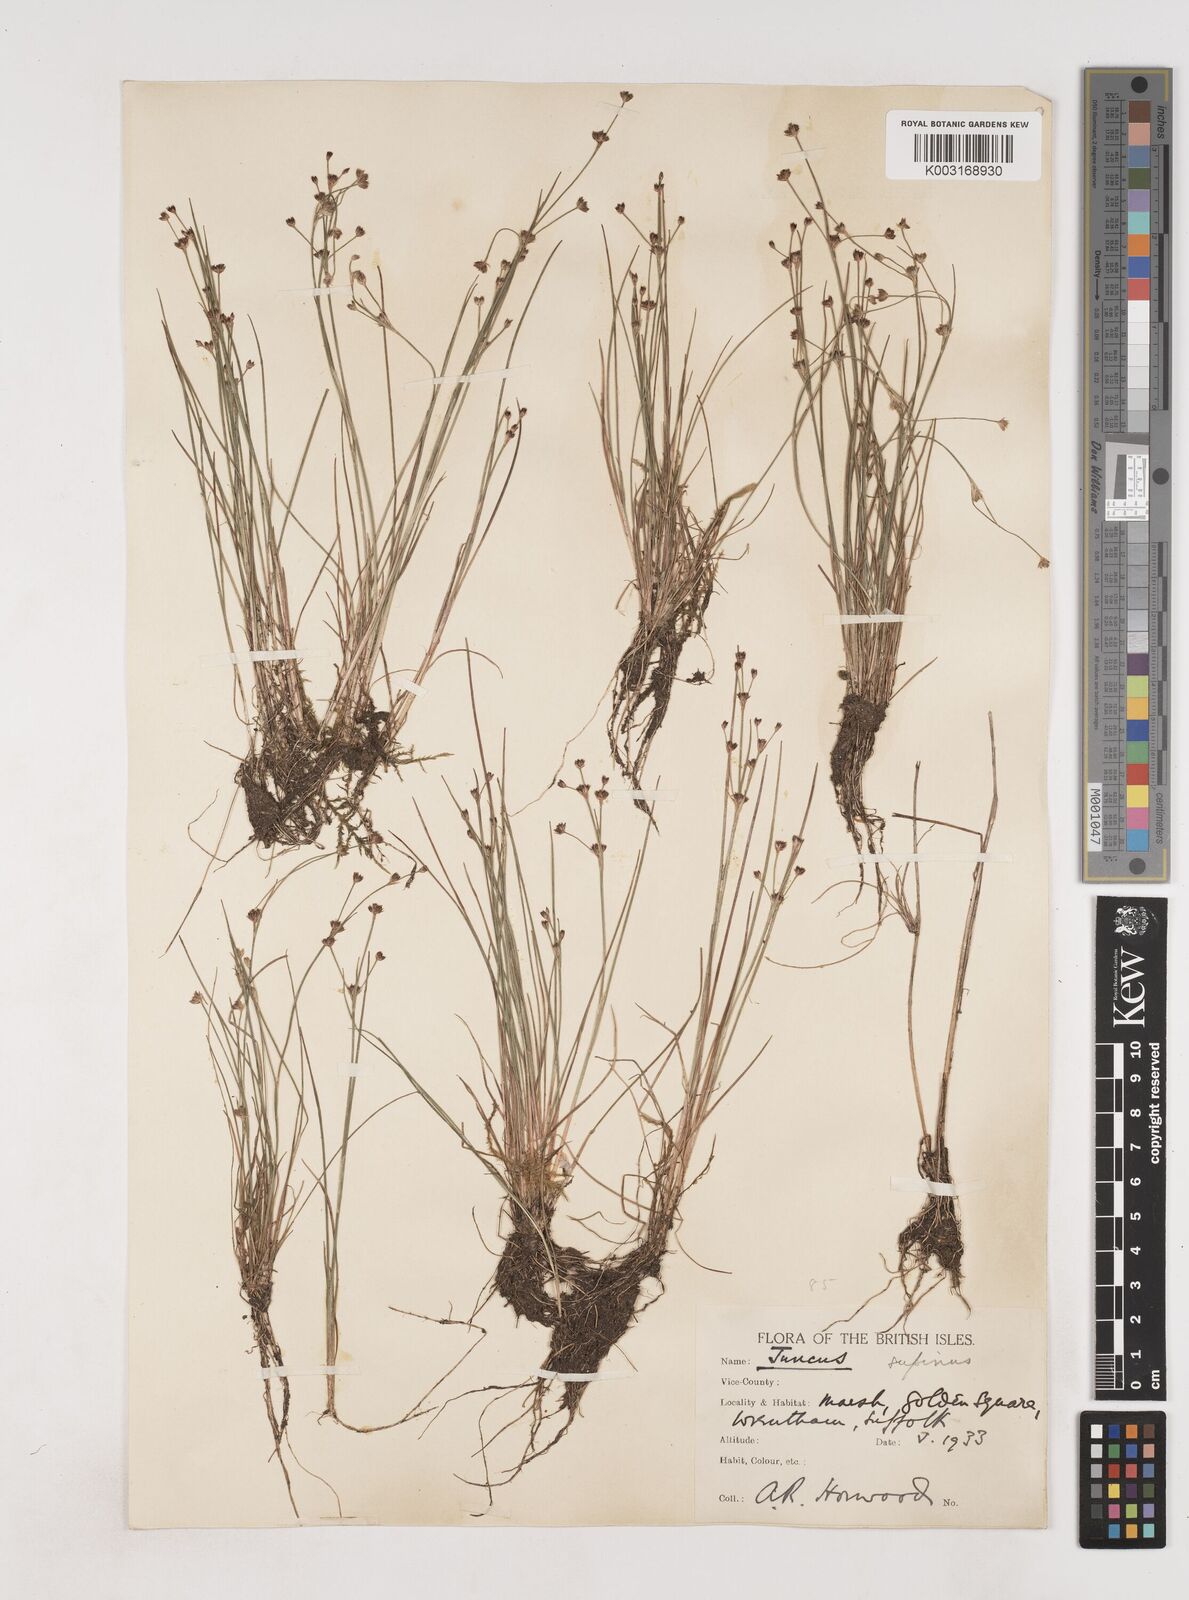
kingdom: Plantae
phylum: Tracheophyta
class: Liliopsida
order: Poales
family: Juncaceae
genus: Juncus
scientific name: Juncus bulbosus
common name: Bulbous rush
